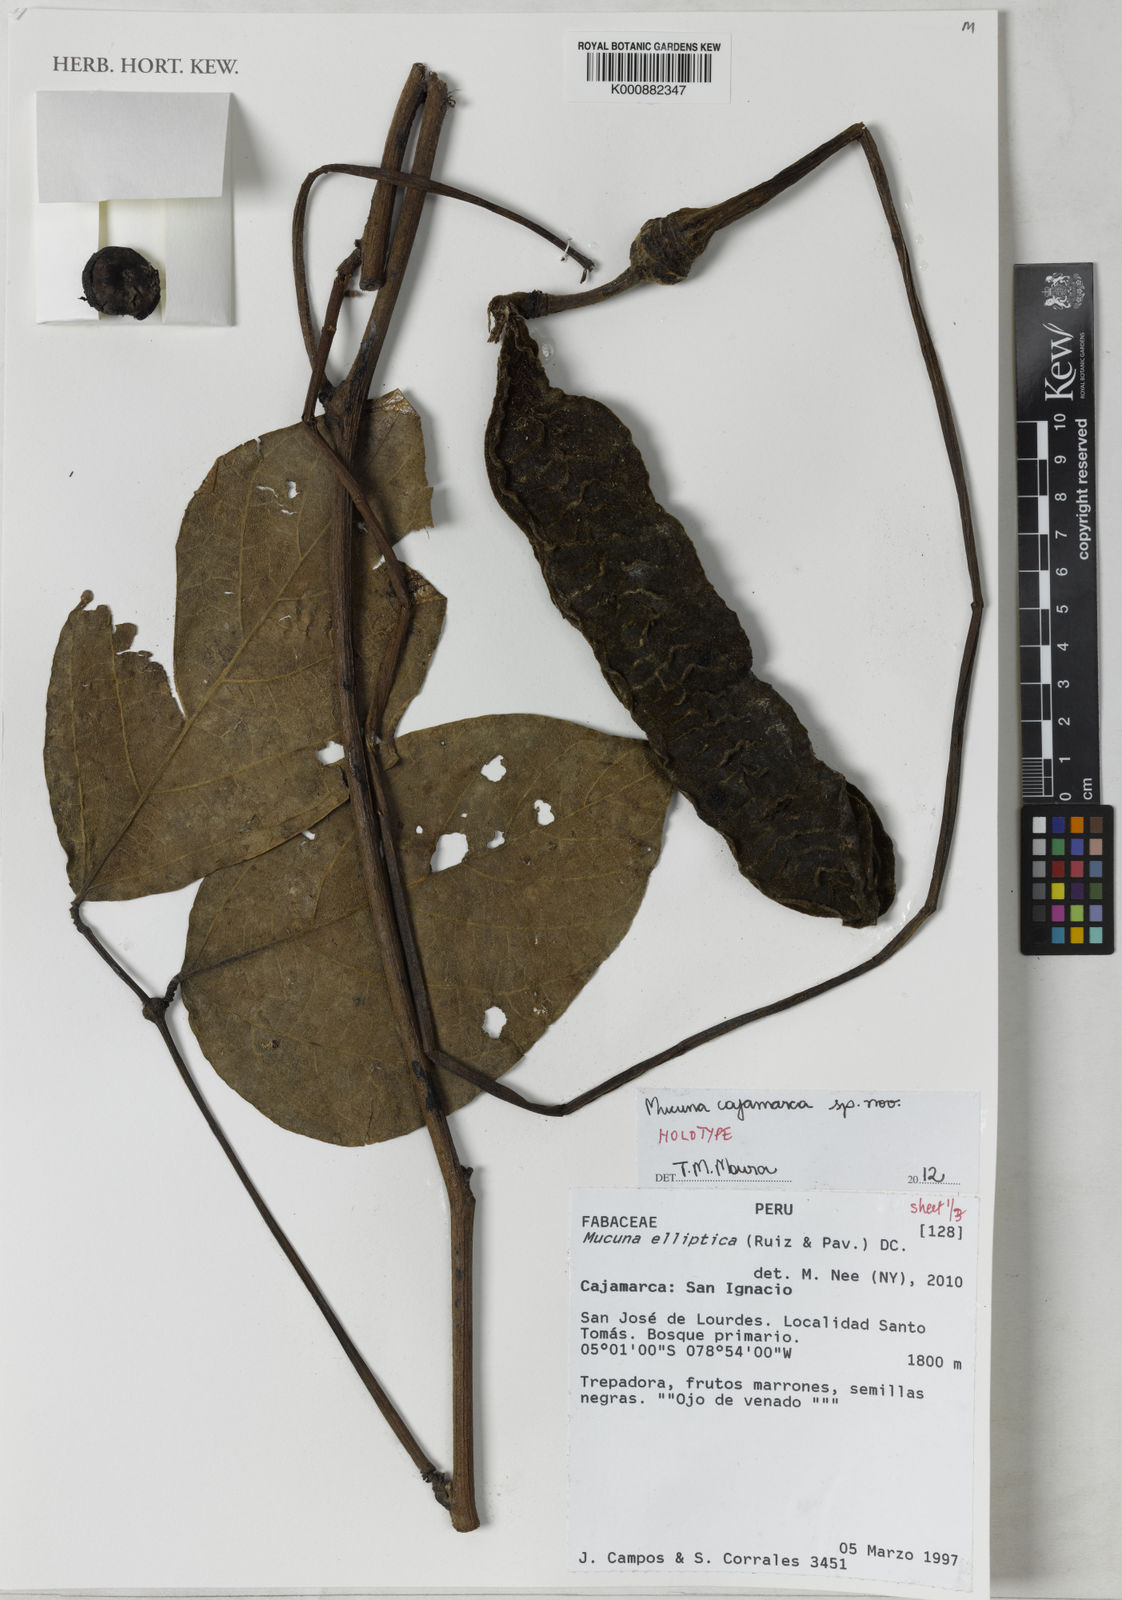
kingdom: Plantae
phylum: Tracheophyta
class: Magnoliopsida
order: Fabales
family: Fabaceae
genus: Mucuna
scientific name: Mucuna
